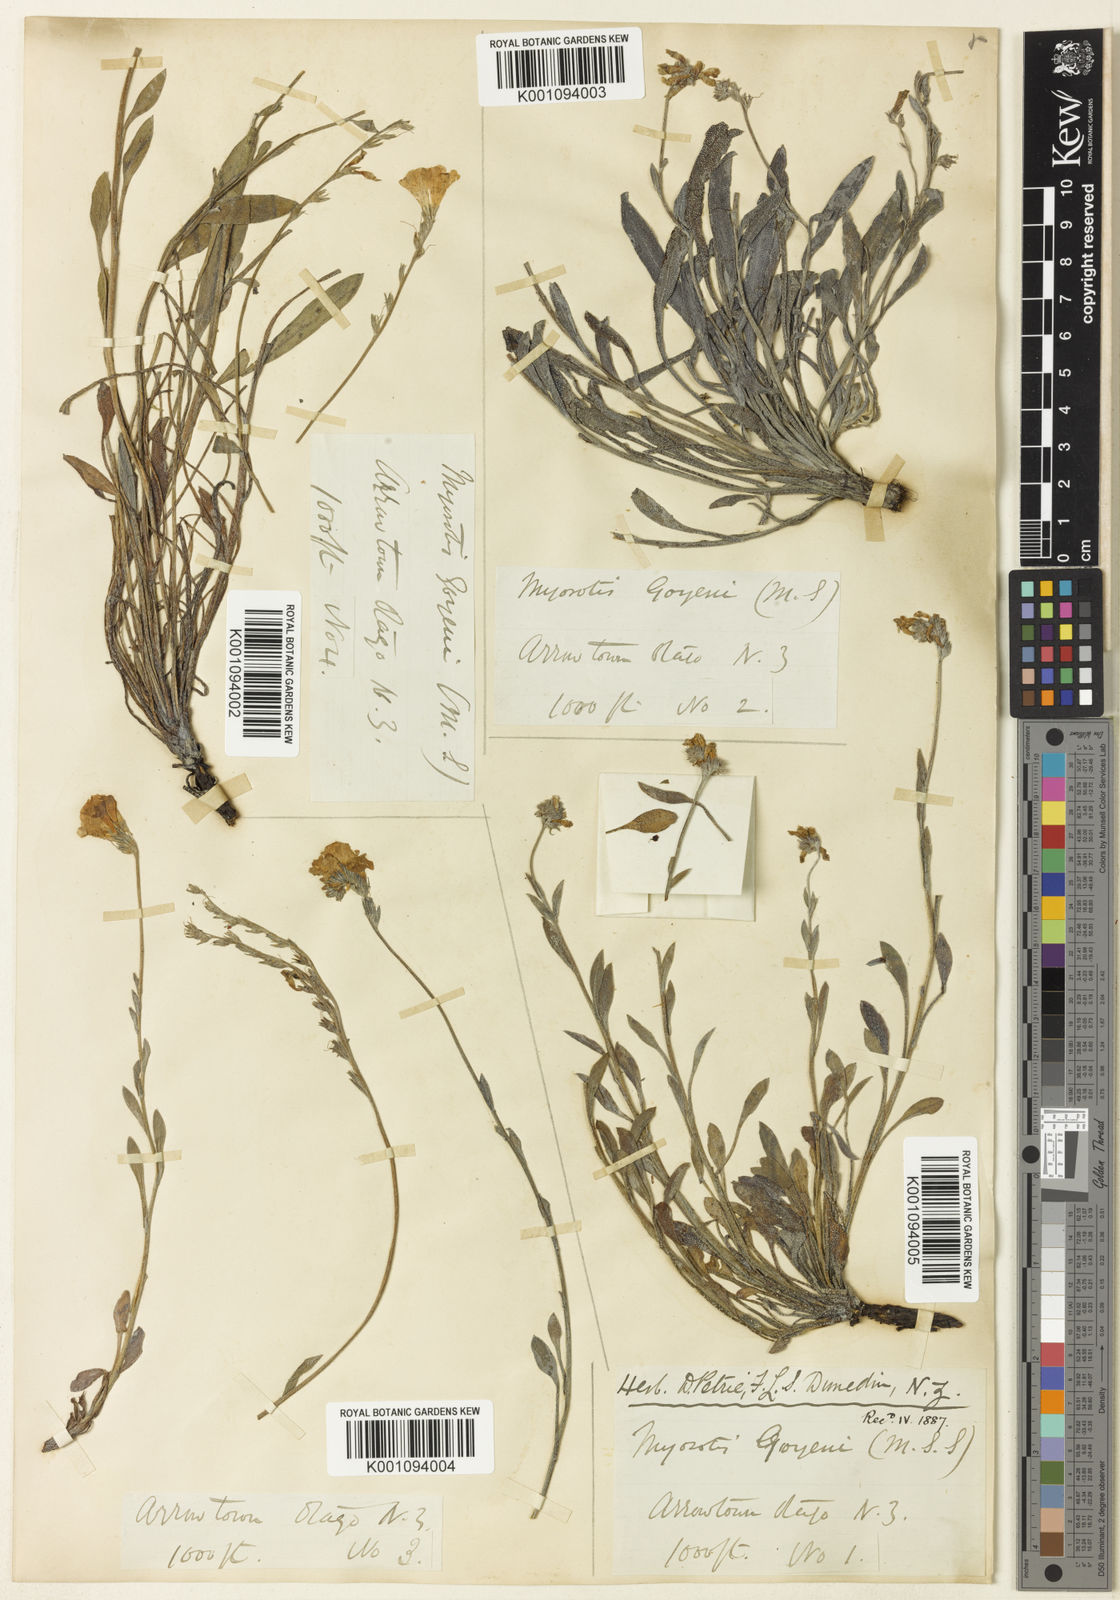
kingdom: Plantae
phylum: Tracheophyta
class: Magnoliopsida
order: Boraginales
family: Boraginaceae
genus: Myosotis
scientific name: Myosotis goyenii
